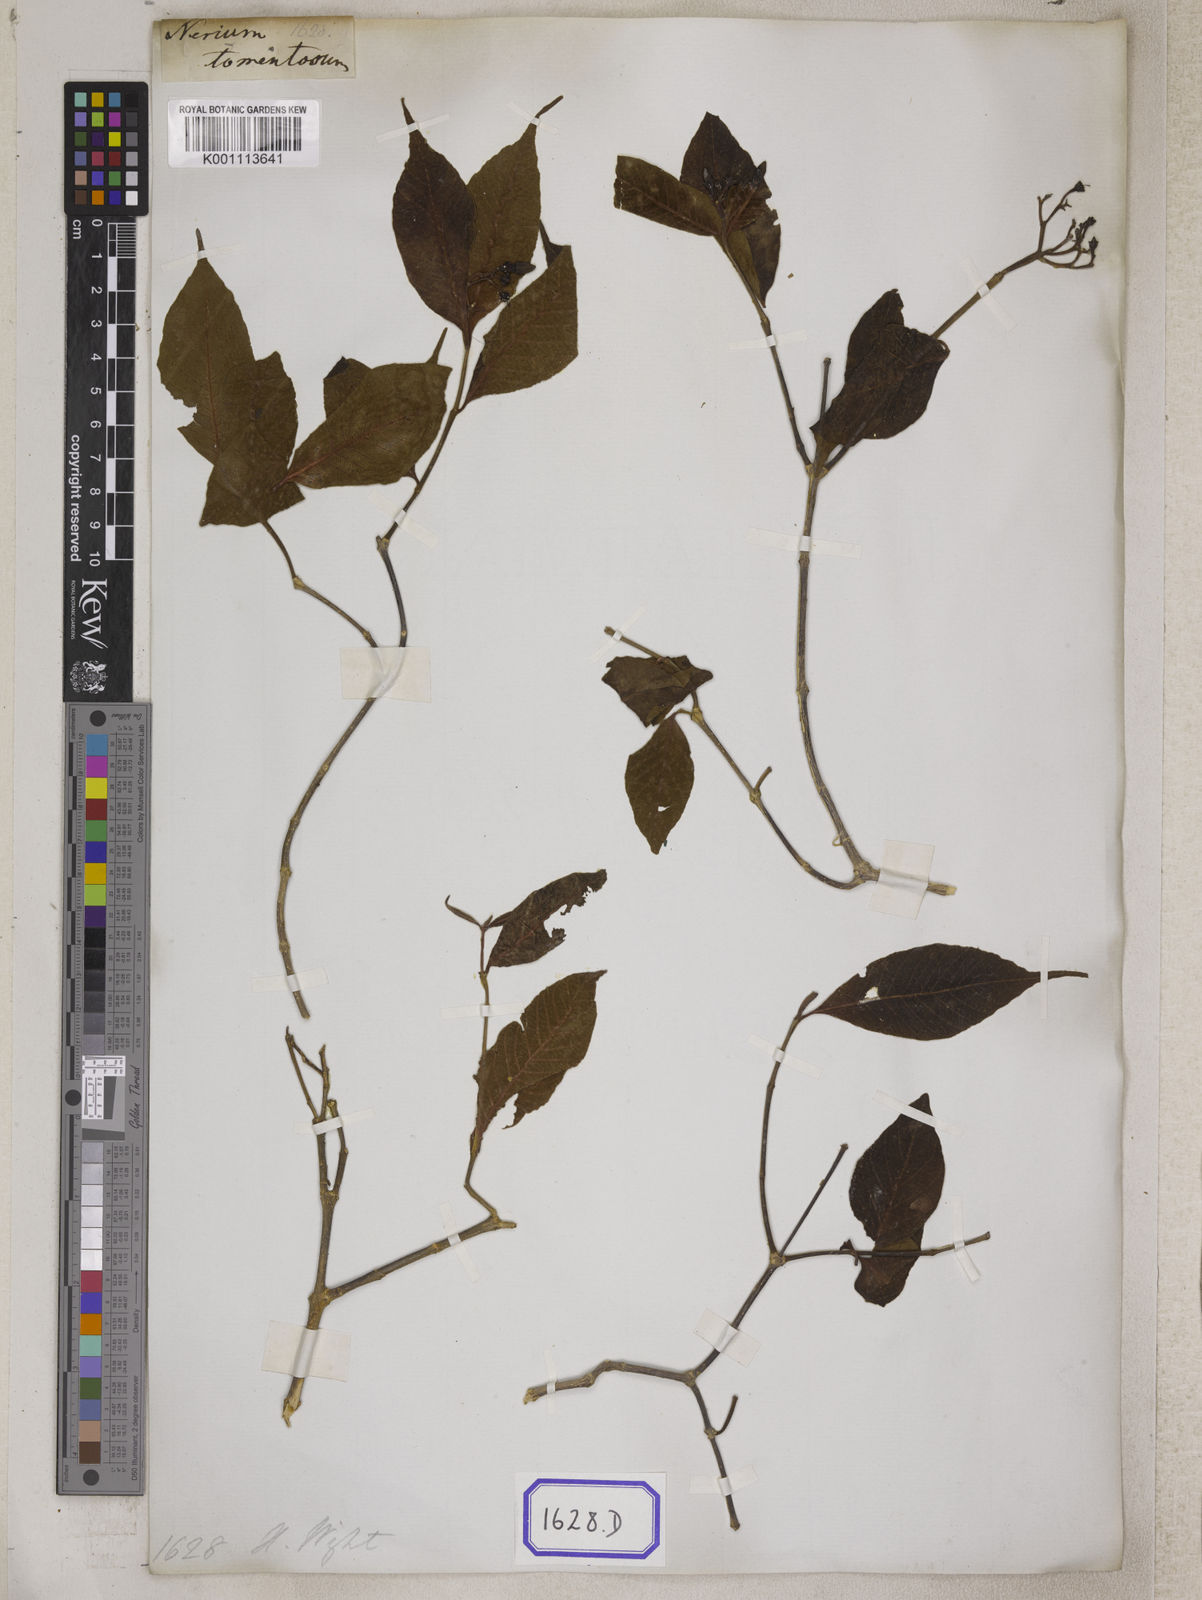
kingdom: Plantae
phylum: Tracheophyta
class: Magnoliopsida
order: Gentianales
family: Apocynaceae
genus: Wrightia
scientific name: Wrightia arborea
